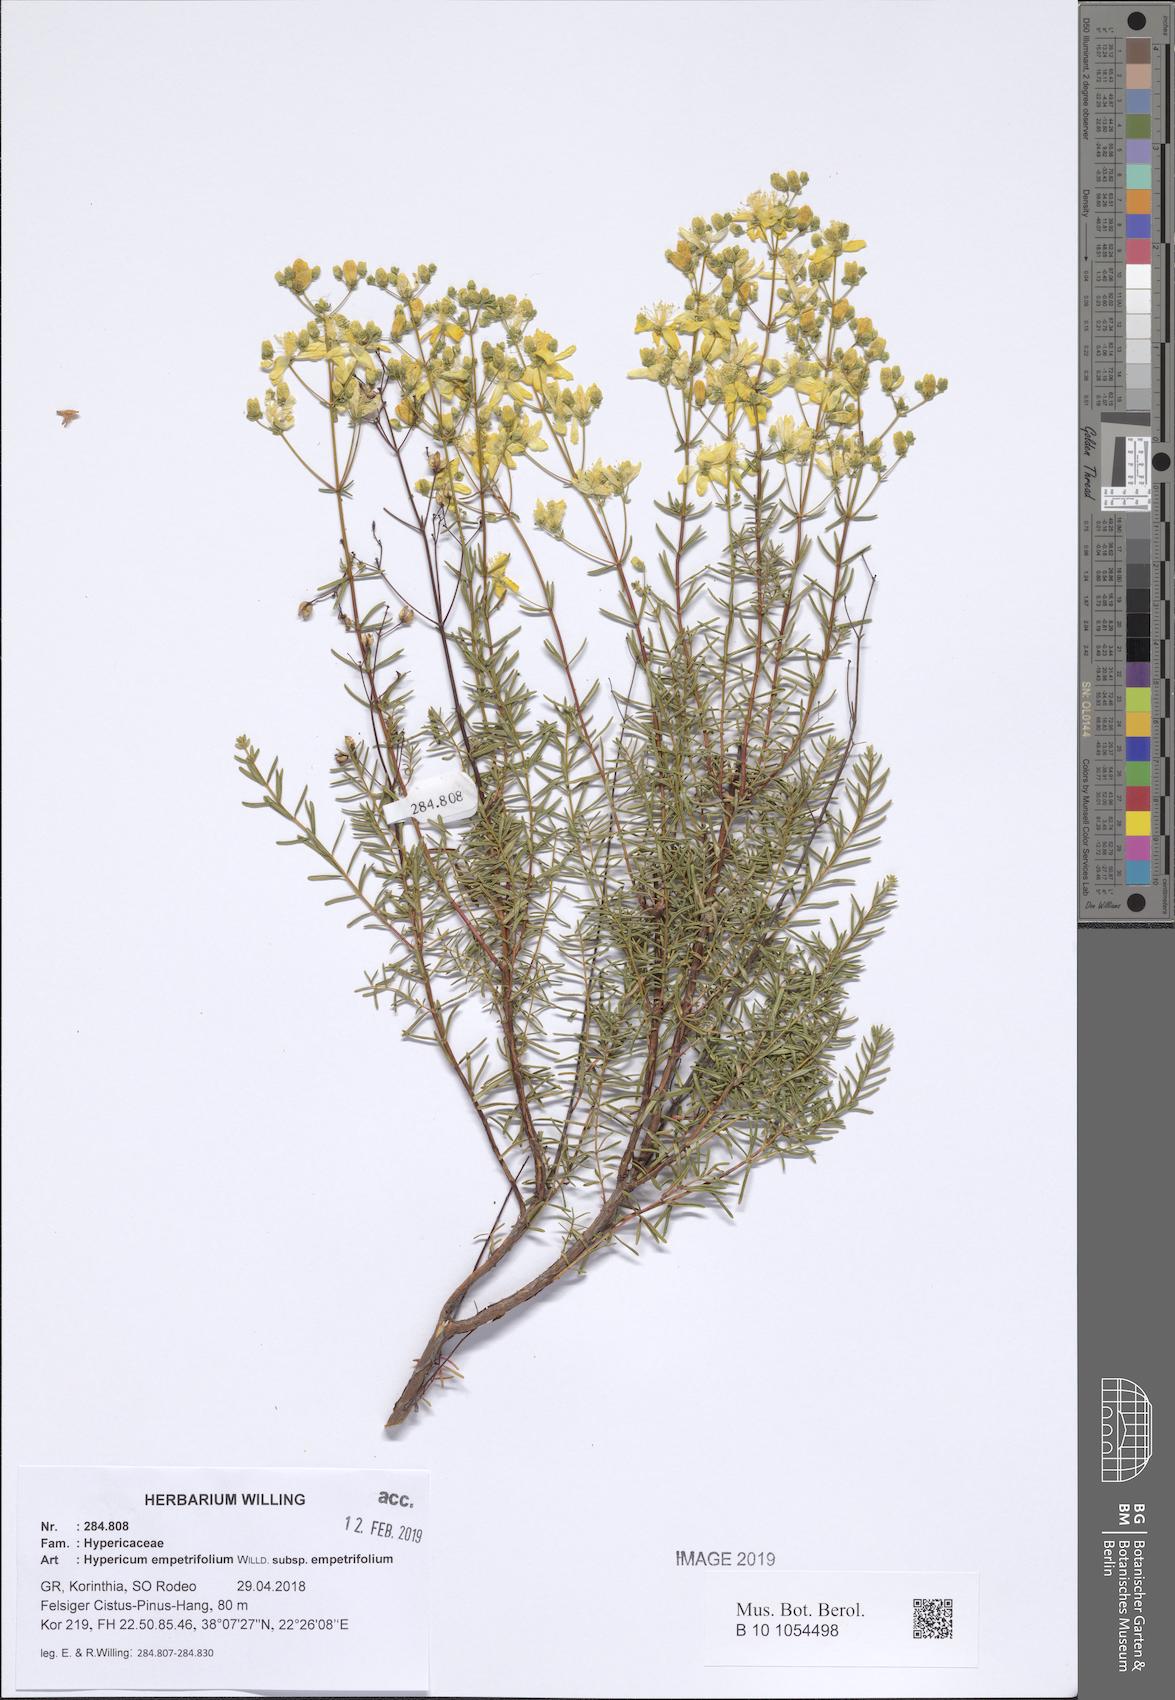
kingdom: Plantae
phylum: Tracheophyta
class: Magnoliopsida
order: Malpighiales
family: Hypericaceae
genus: Hypericum
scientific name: Hypericum empetrifolium
